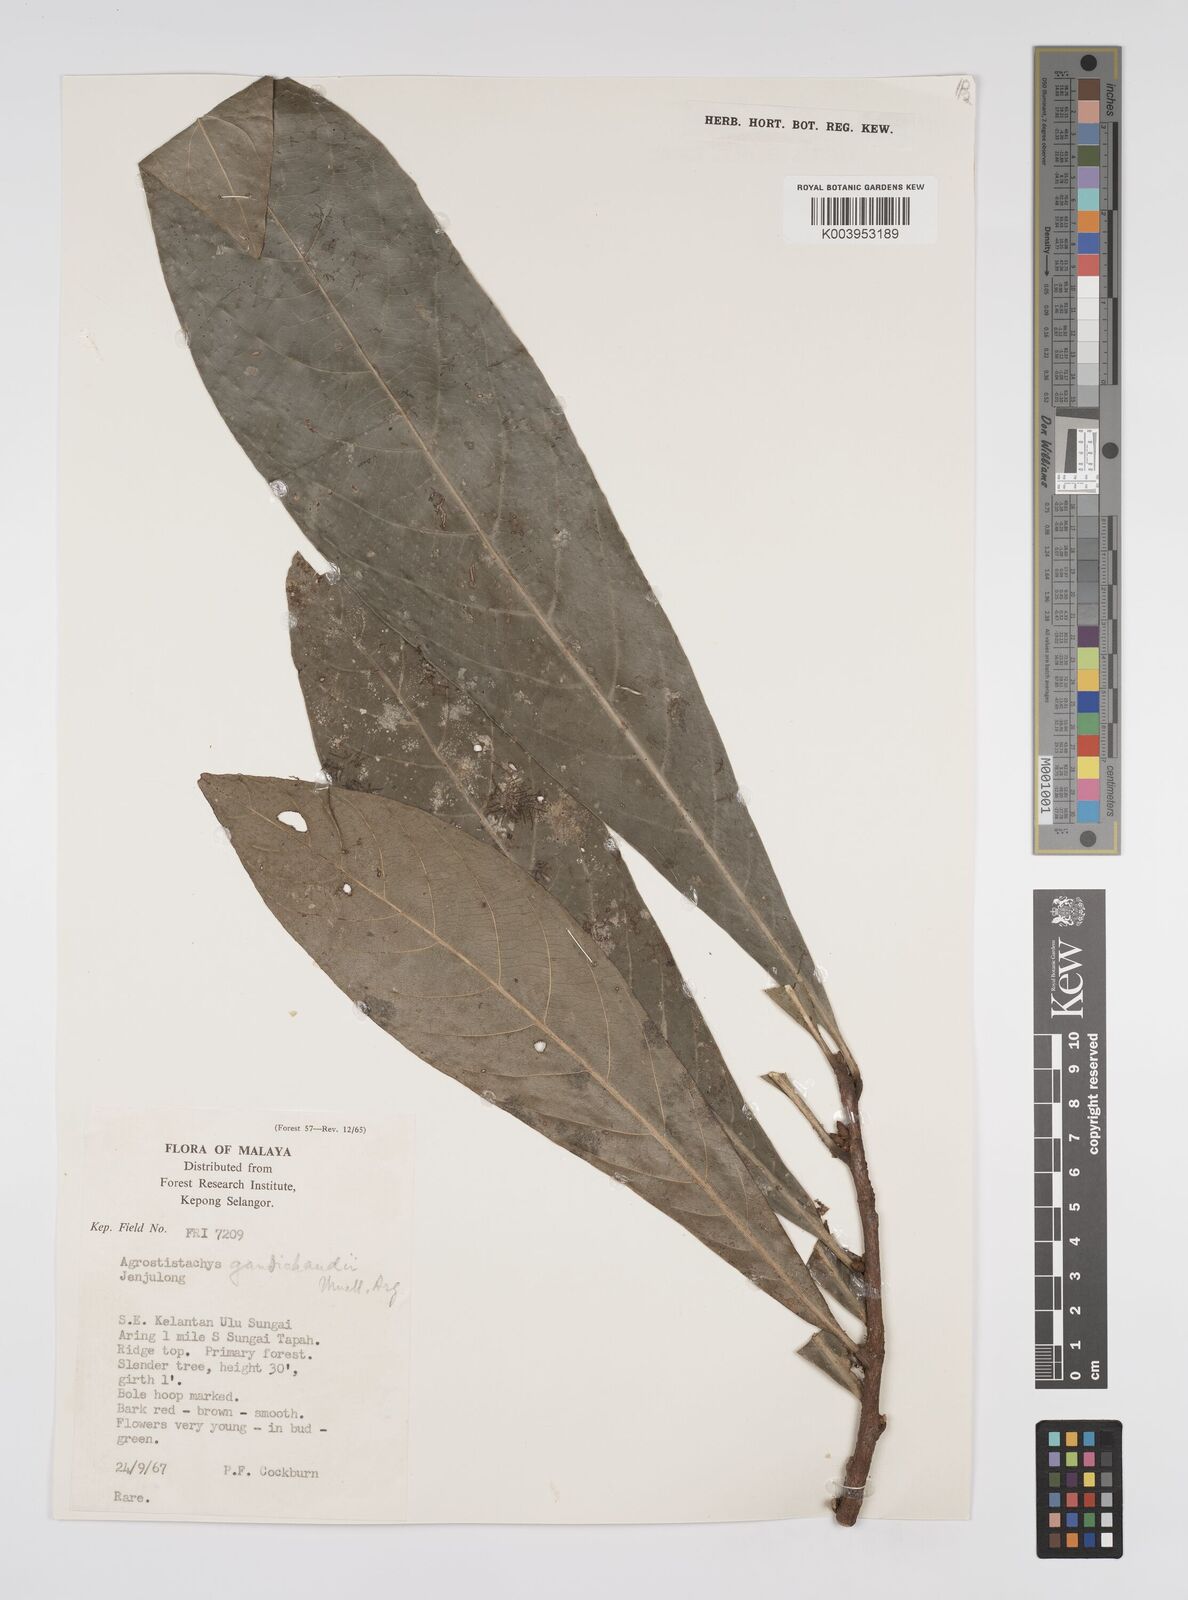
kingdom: Plantae
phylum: Tracheophyta
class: Magnoliopsida
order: Malpighiales
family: Euphorbiaceae
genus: Agrostistachys
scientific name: Agrostistachys gaudichaudii
